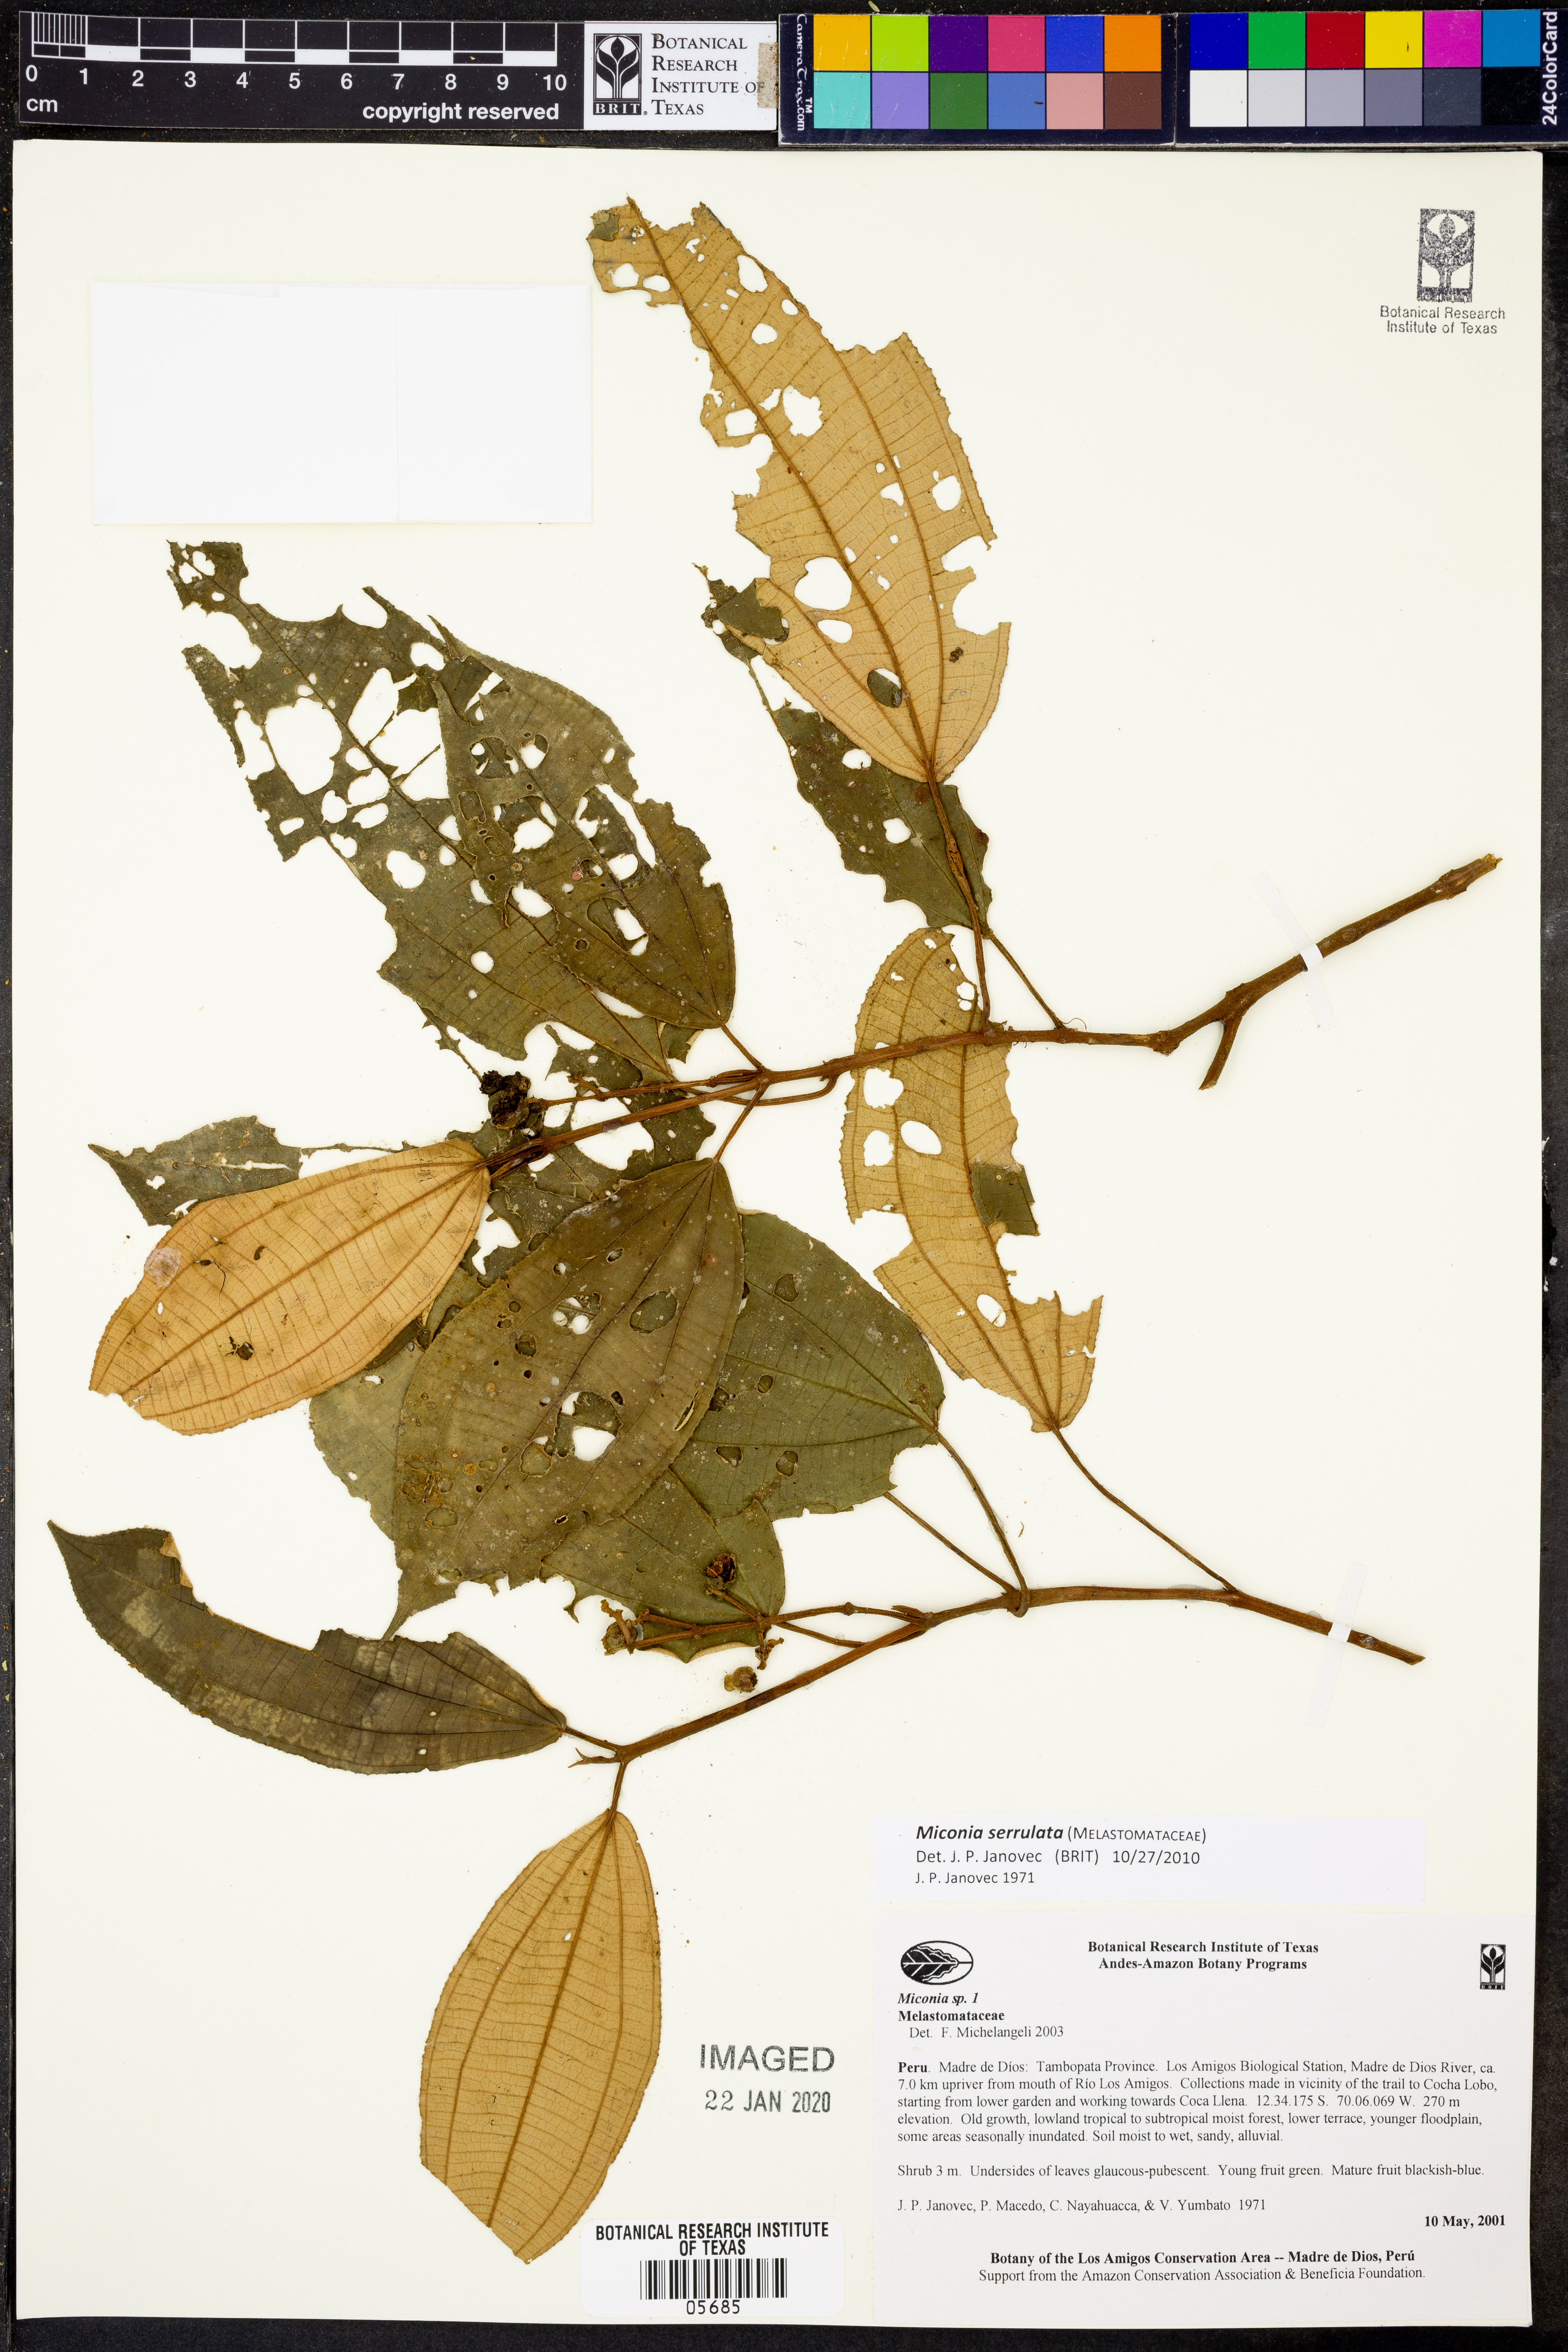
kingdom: Plantae
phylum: Tracheophyta
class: Magnoliopsida
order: Myrtales
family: Melastomataceae
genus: Miconia
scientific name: Miconia serrulata
